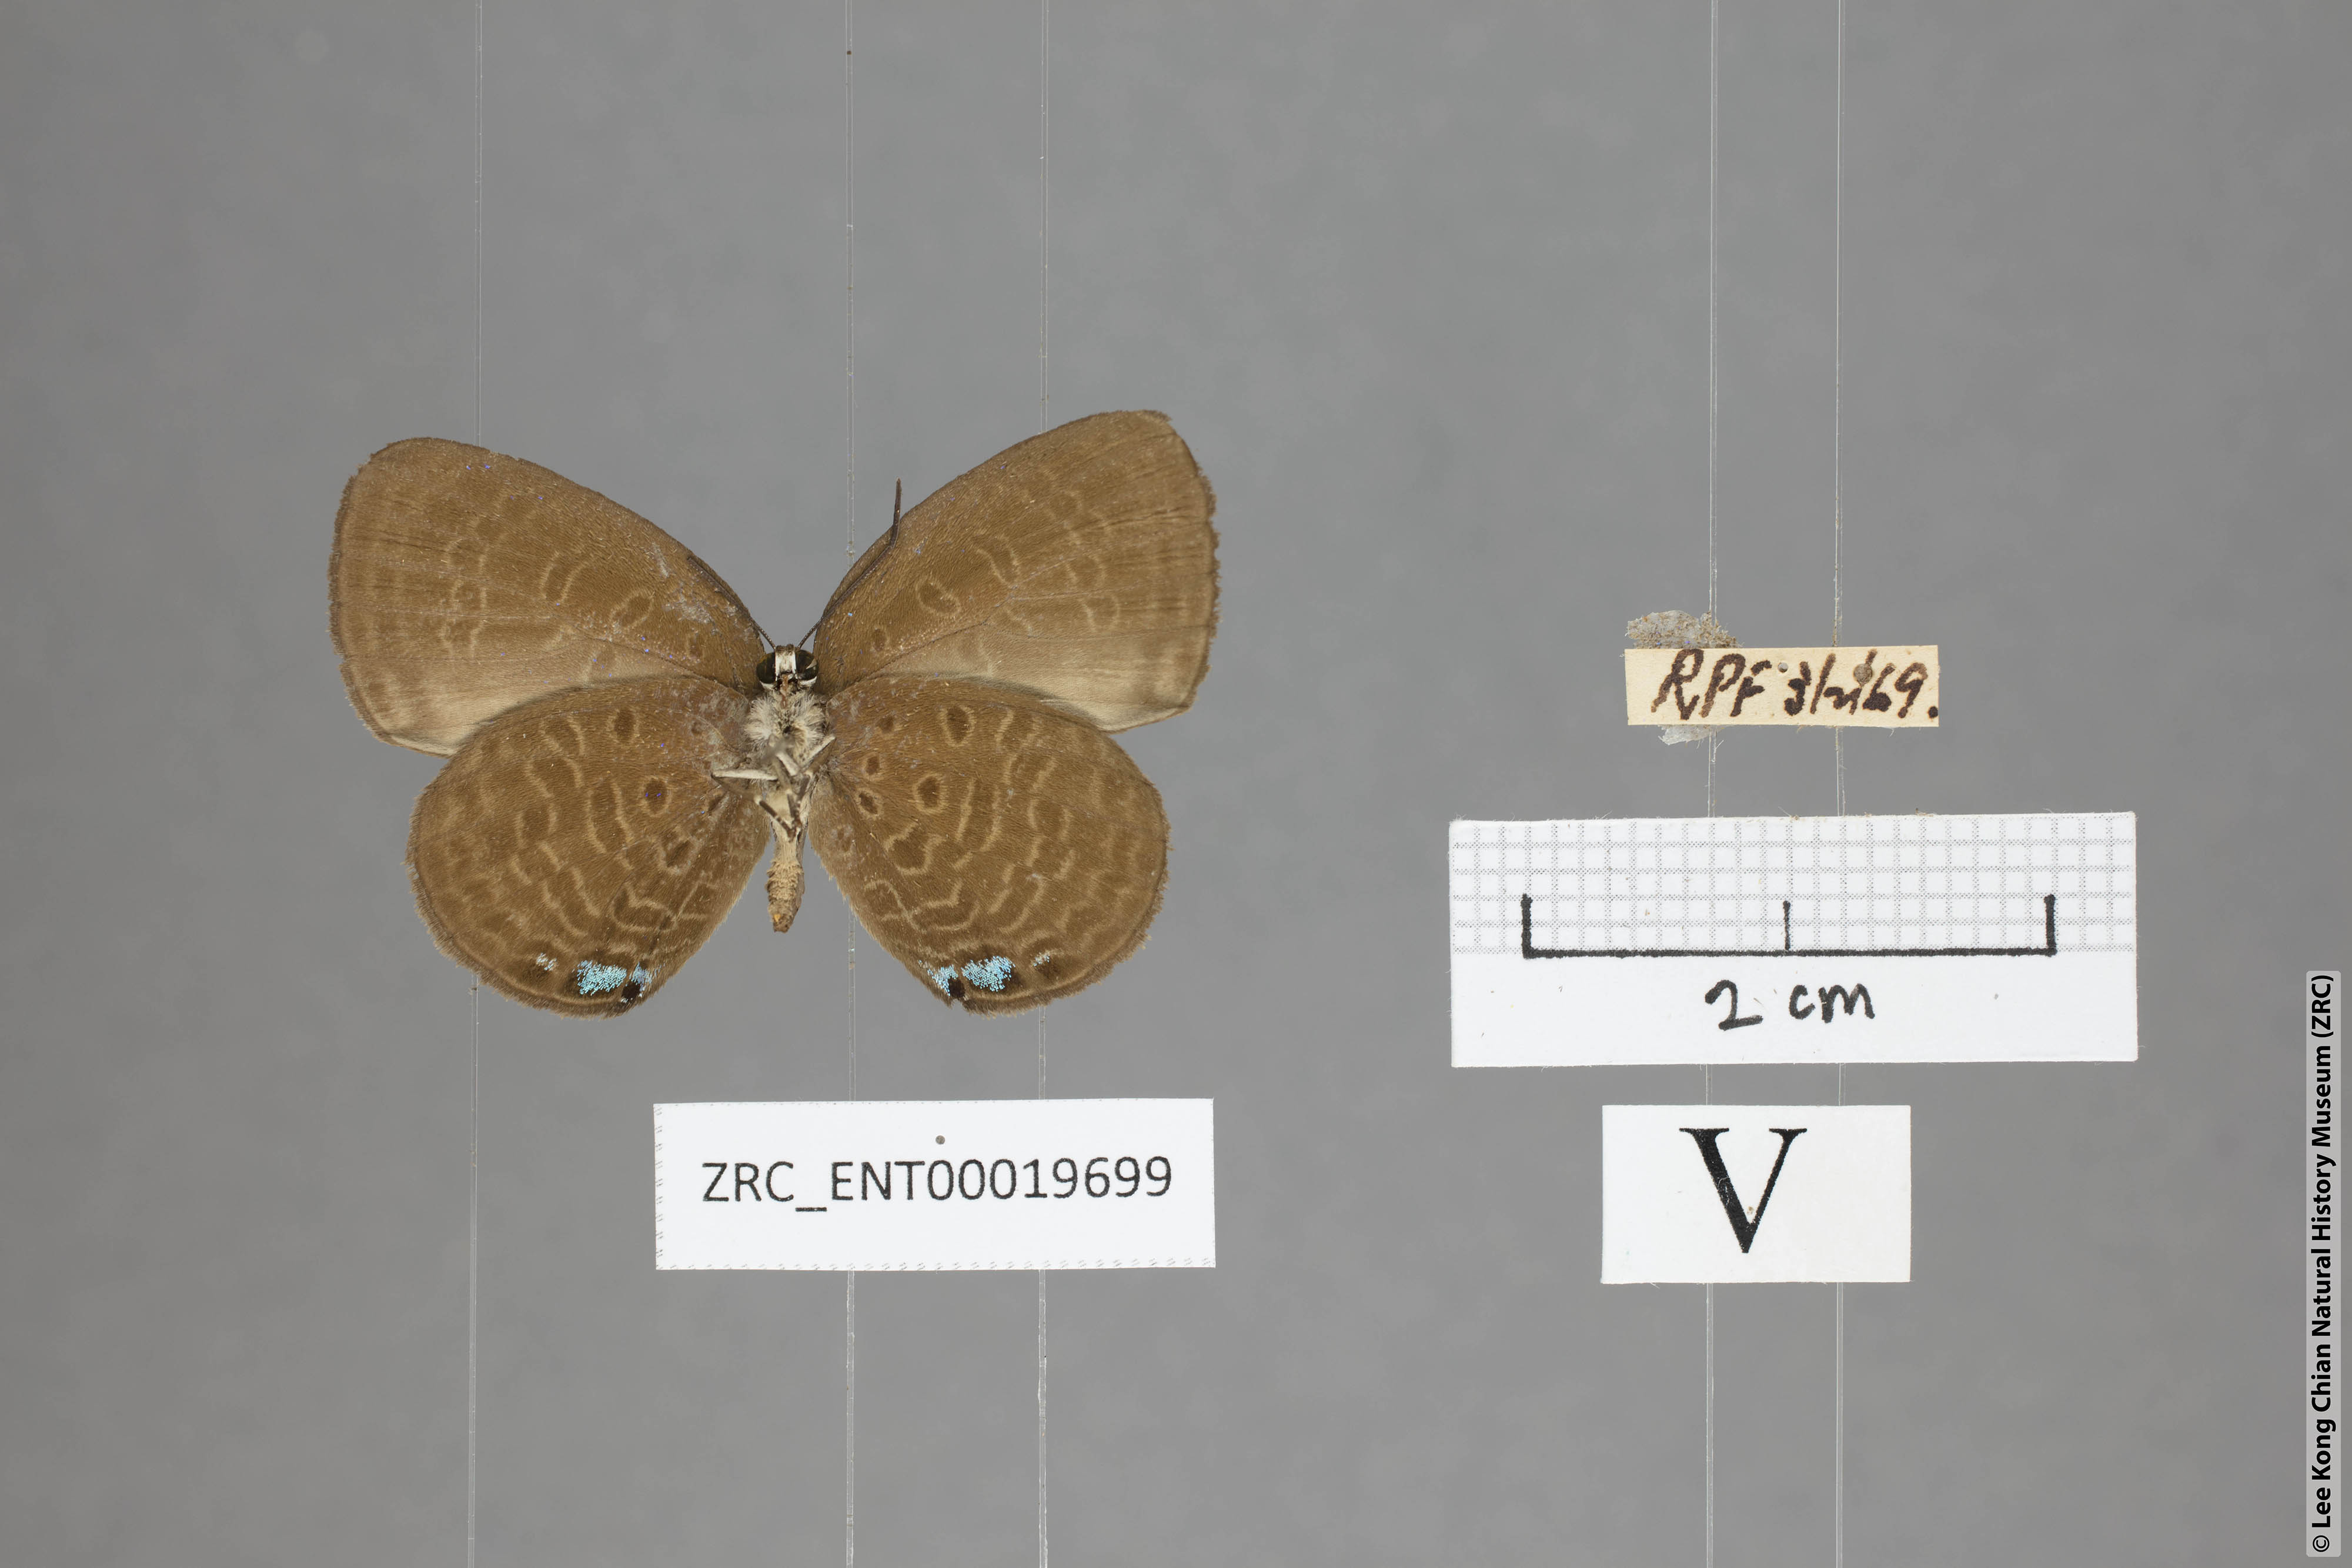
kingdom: Animalia
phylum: Arthropoda
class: Insecta
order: Lepidoptera
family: Lycaenidae
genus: Arhopala
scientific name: Arhopala muta
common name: Mutal oakblue
